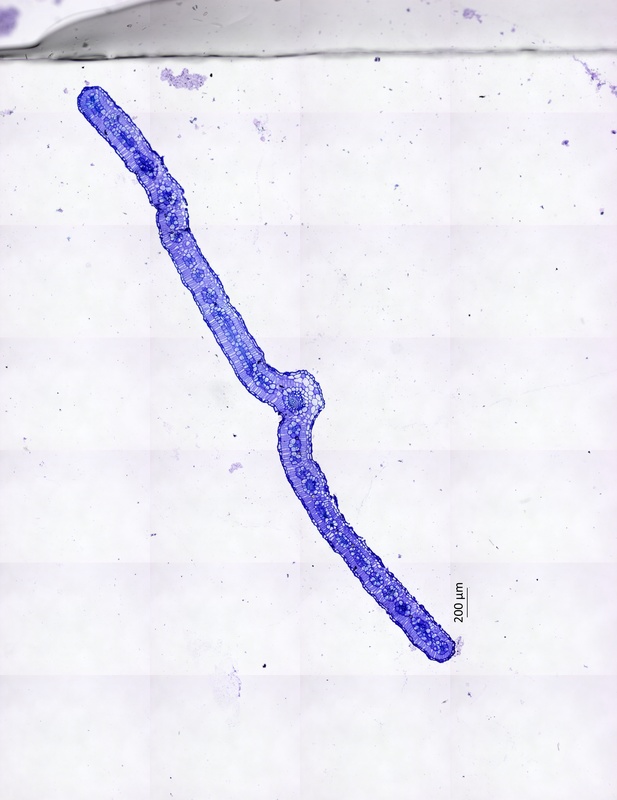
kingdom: Plantae
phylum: Tracheophyta
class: Magnoliopsida
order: Zygophyllales
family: Zygophyllaceae
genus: Tribulus
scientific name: Tribulus cistoides
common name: Jamaican feverplant
